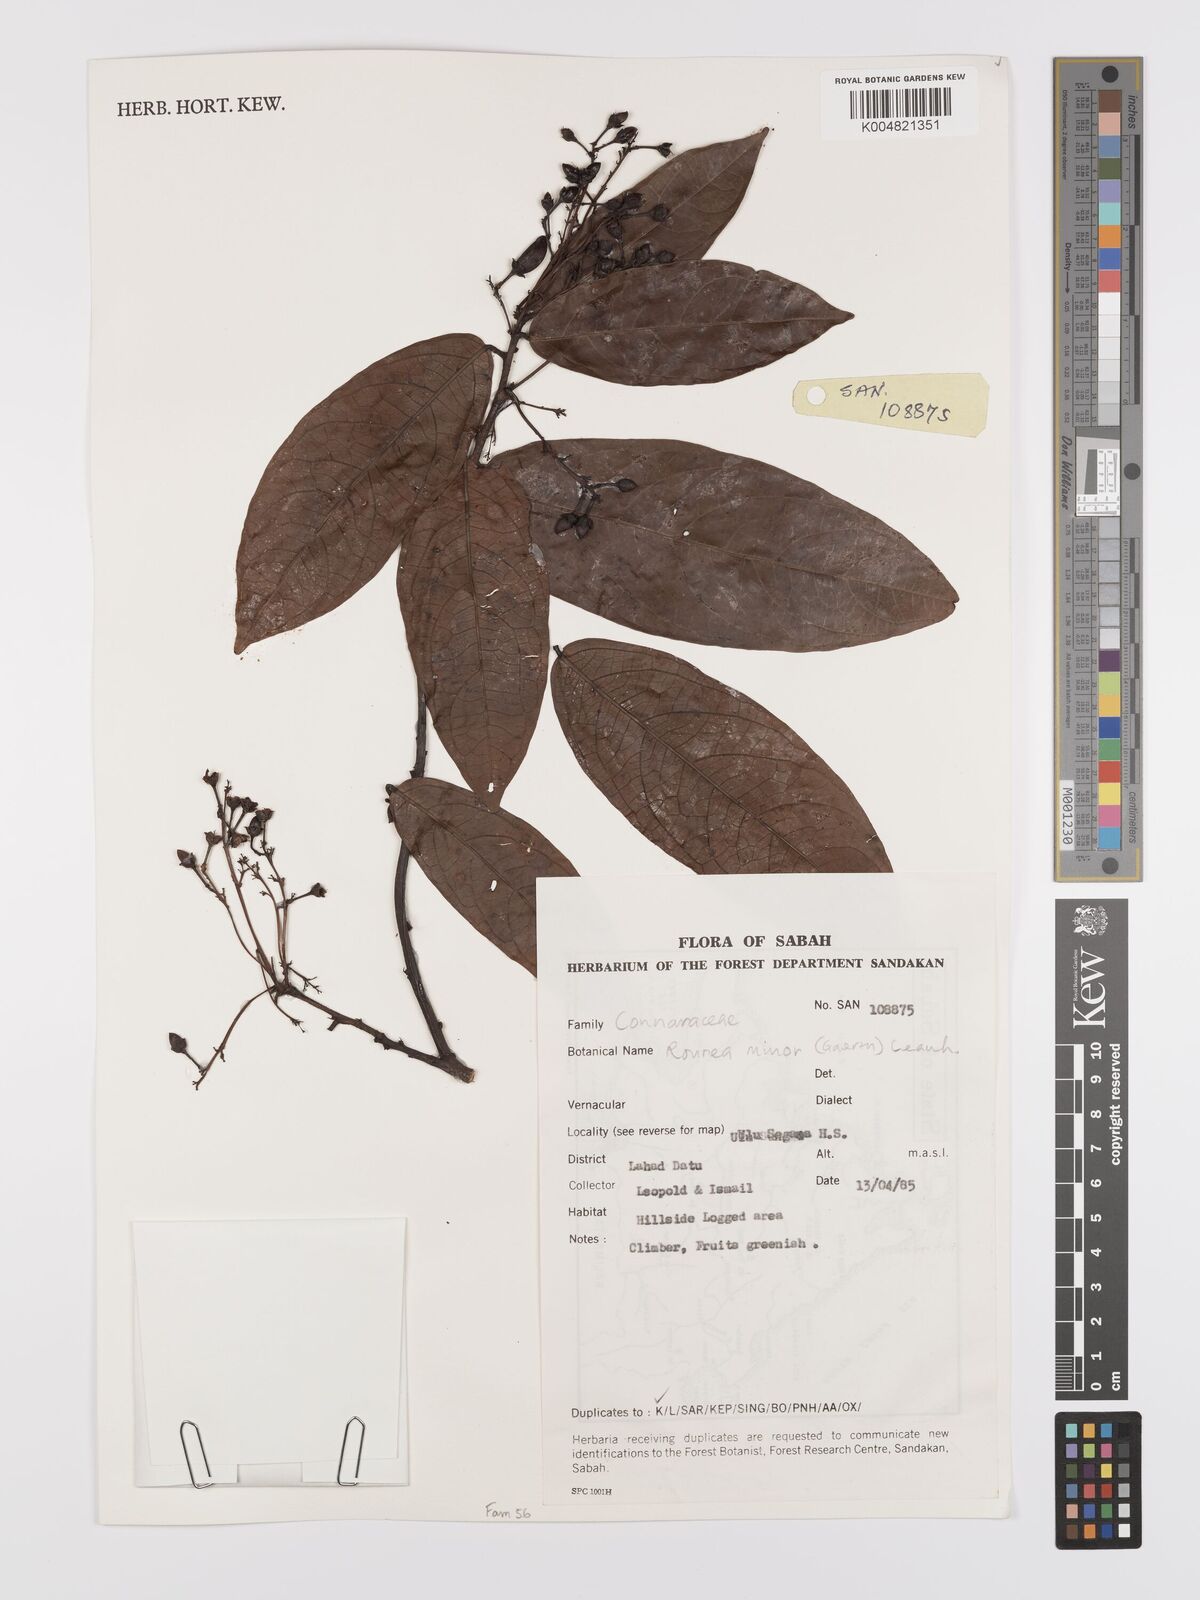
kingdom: Plantae
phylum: Tracheophyta
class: Magnoliopsida
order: Oxalidales
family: Connaraceae
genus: Rourea
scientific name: Rourea minor
